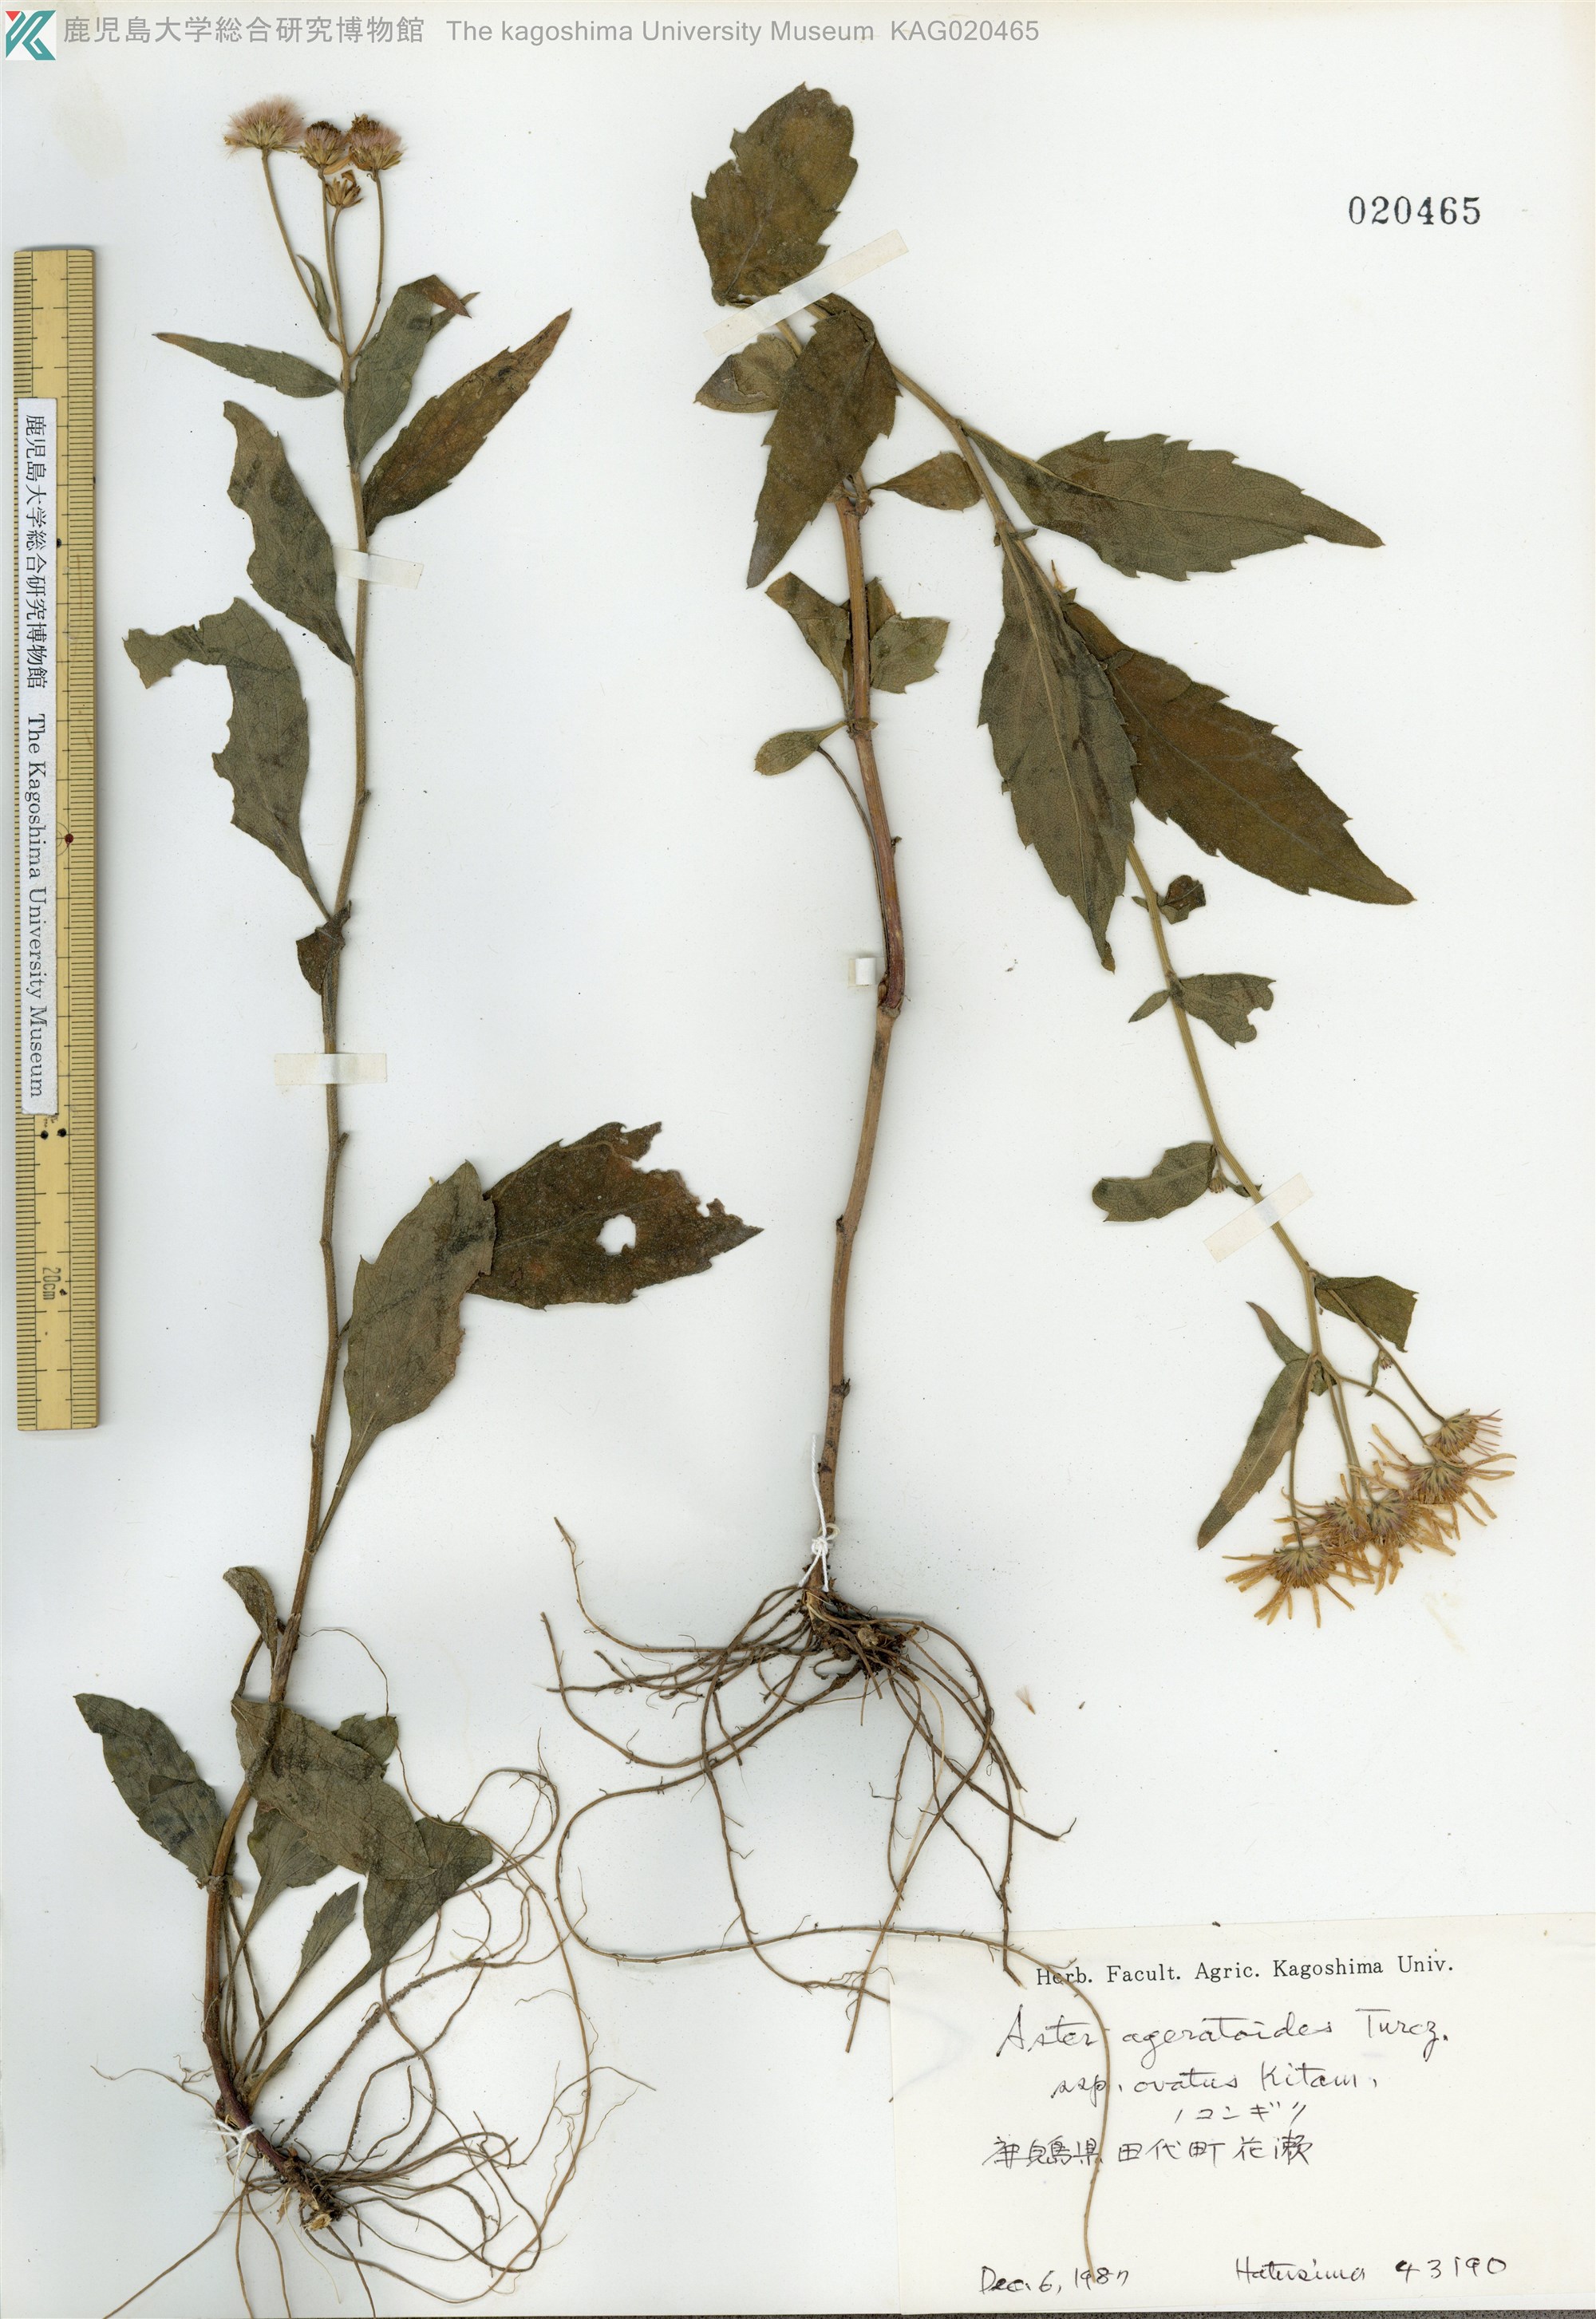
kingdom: Plantae
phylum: Tracheophyta
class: Magnoliopsida
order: Asterales
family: Asteraceae
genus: Aster
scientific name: Aster satsumensis
